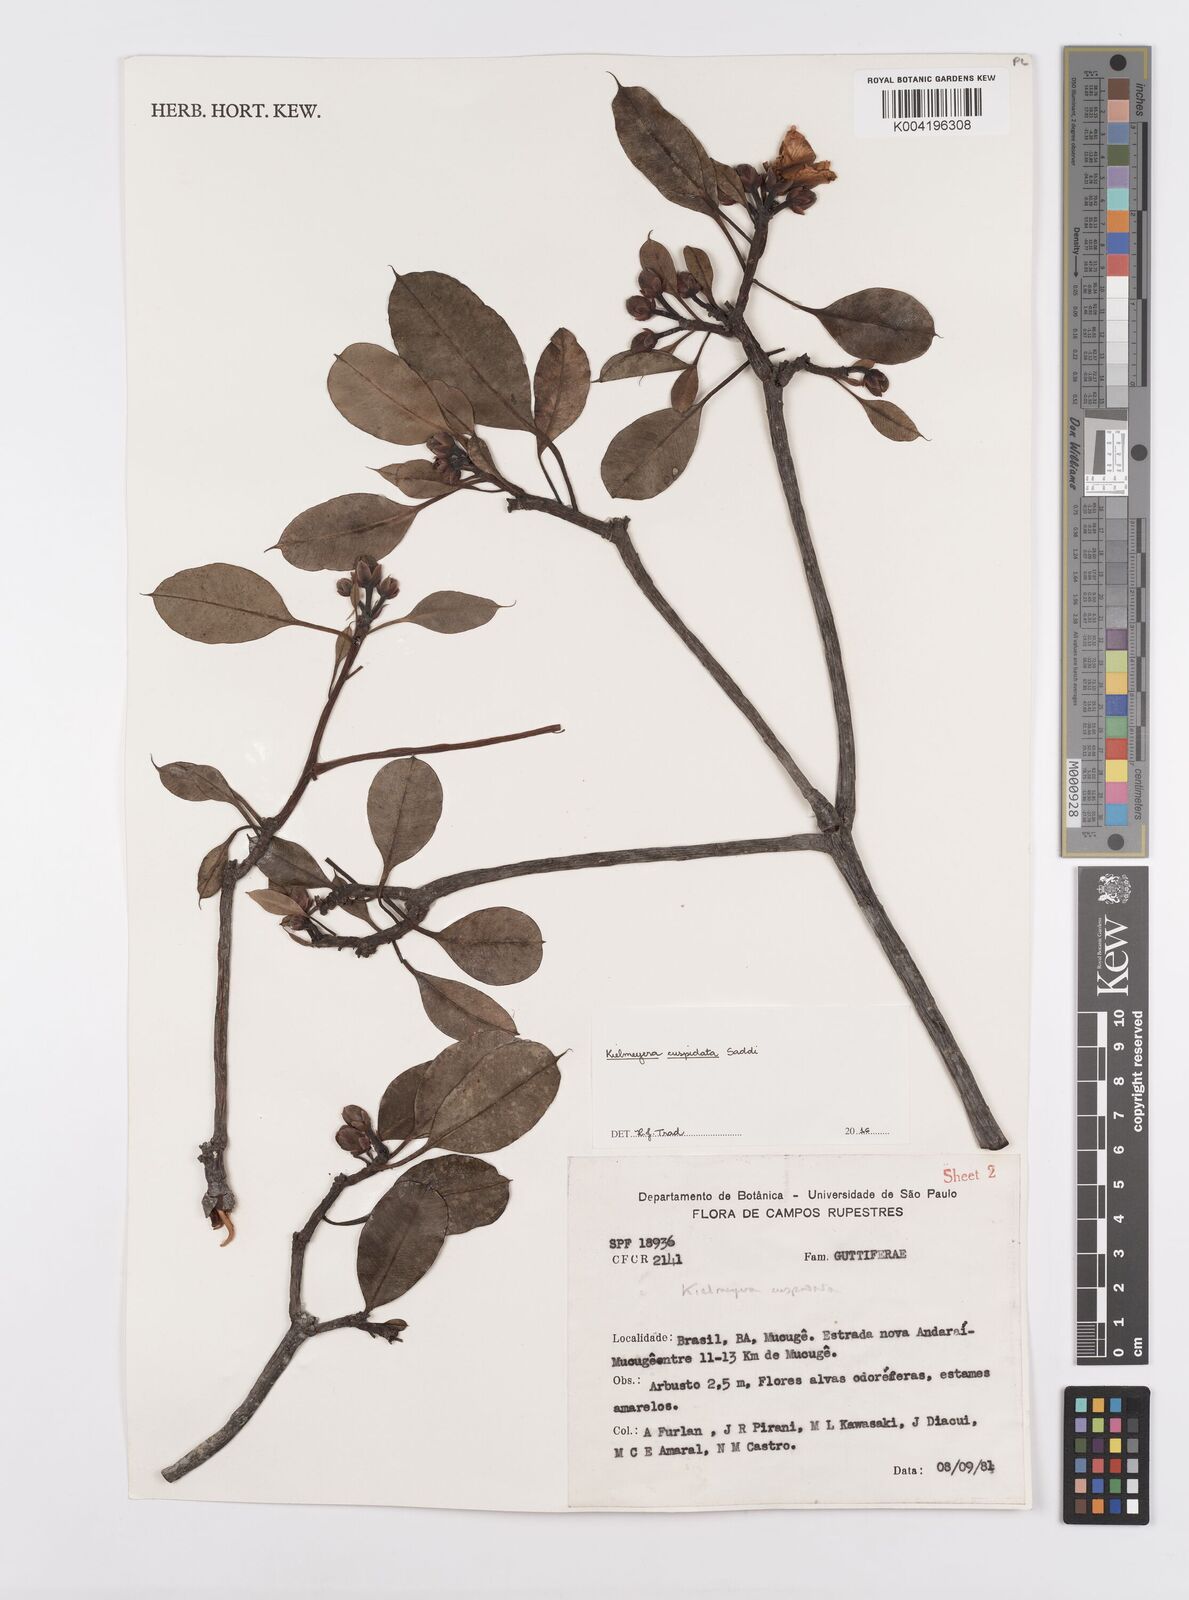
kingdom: Plantae
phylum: Tracheophyta
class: Magnoliopsida
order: Malpighiales
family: Calophyllaceae
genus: Kielmeyera
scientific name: Kielmeyera cuspidata
